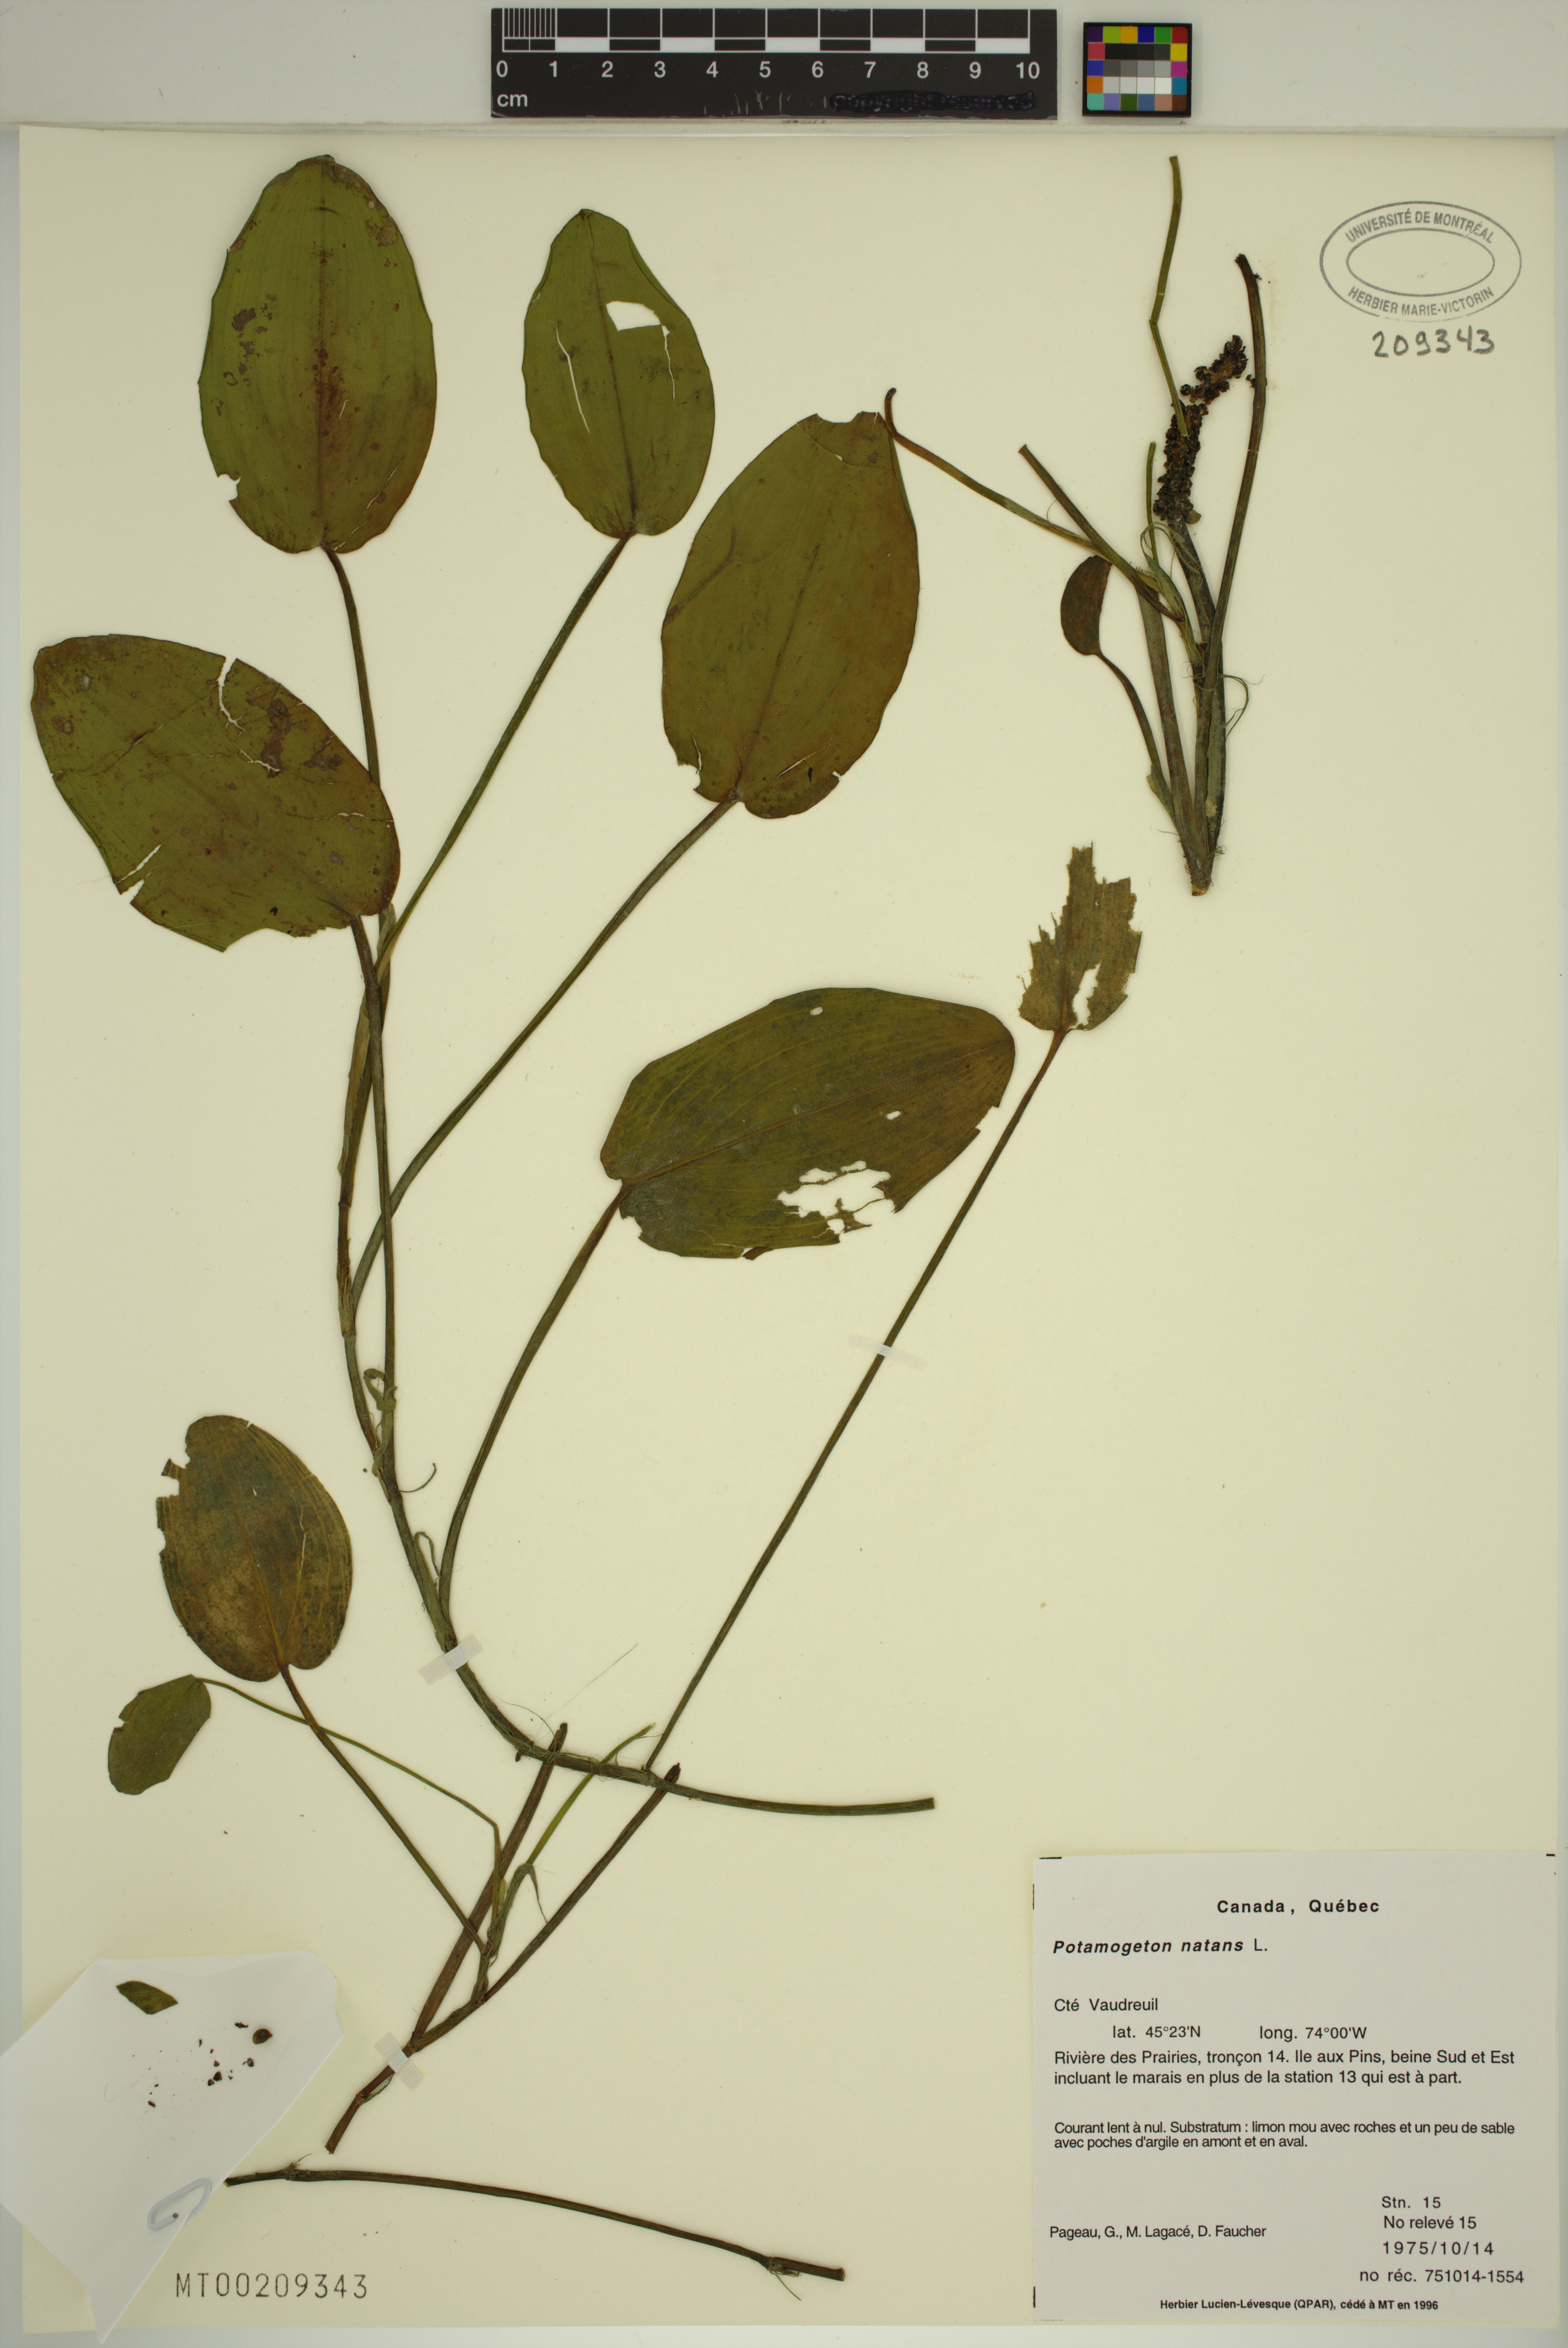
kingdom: Plantae
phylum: Tracheophyta
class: Liliopsida
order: Alismatales
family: Potamogetonaceae
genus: Potamogeton
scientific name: Potamogeton natans
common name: Broad-leaved pondweed
